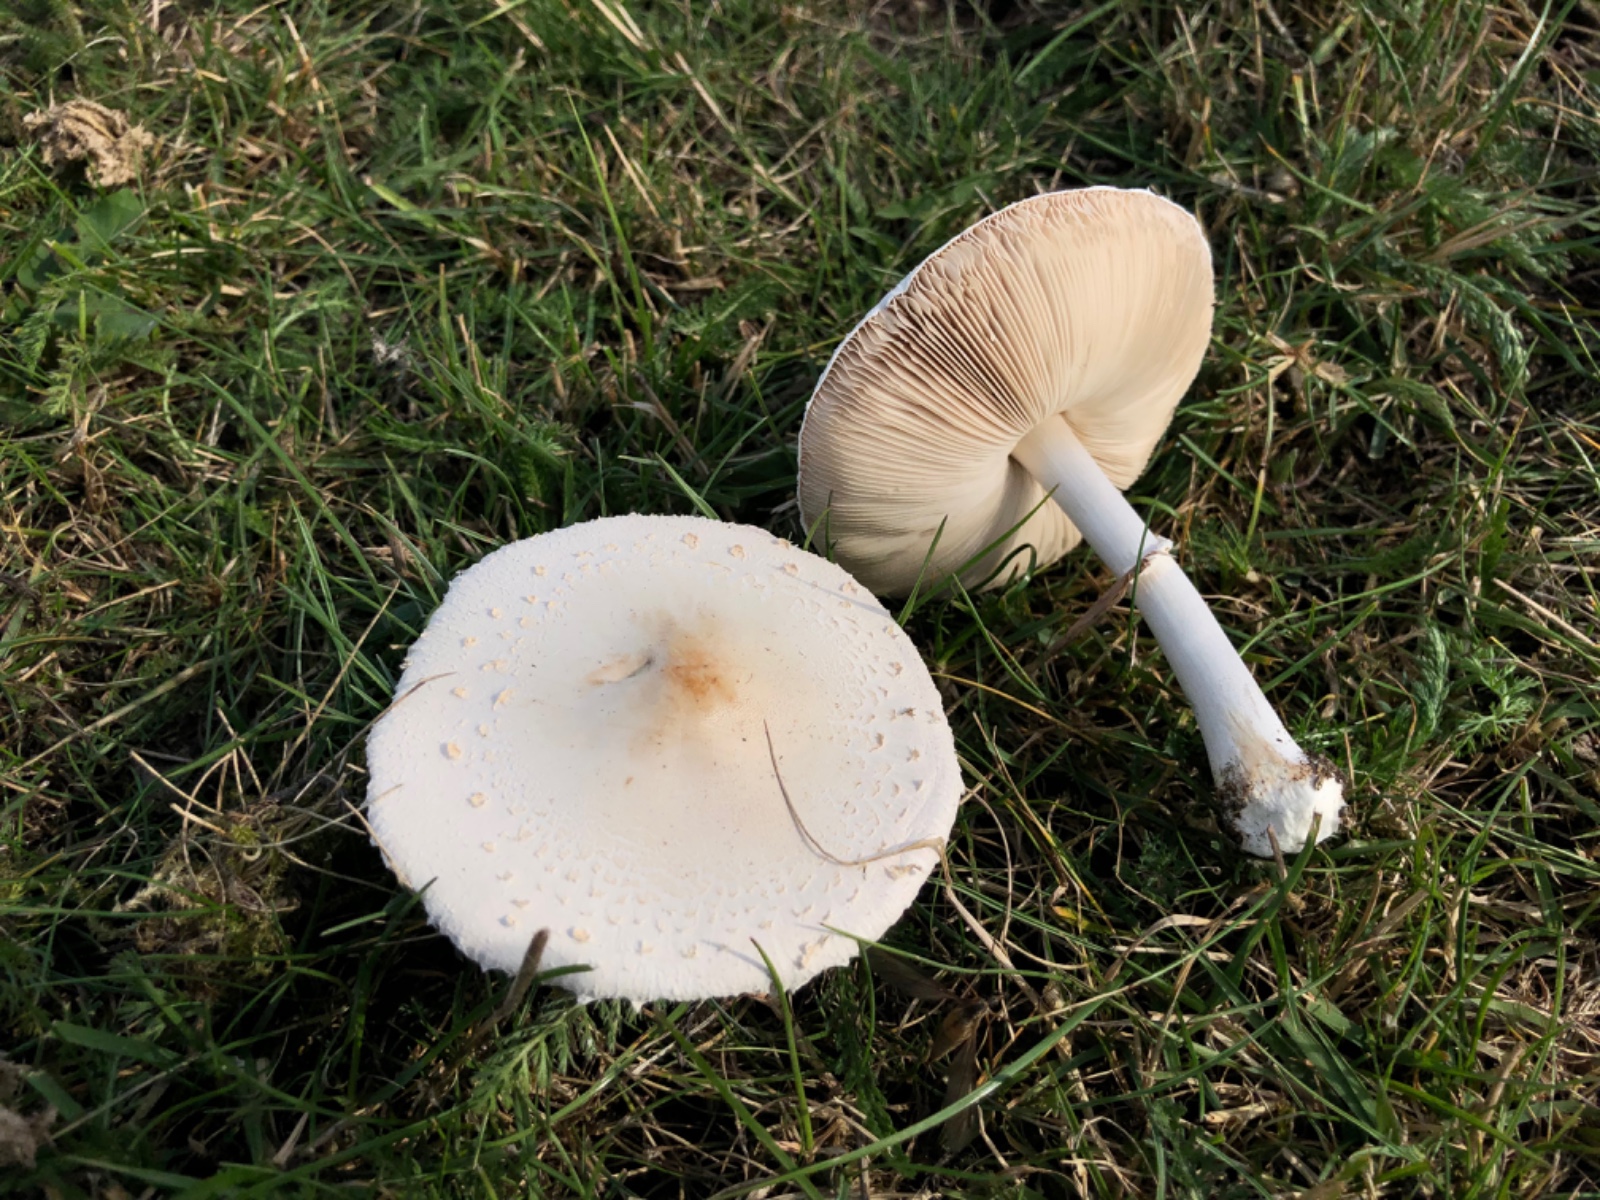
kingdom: Fungi
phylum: Basidiomycota
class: Agaricomycetes
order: Agaricales
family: Agaricaceae
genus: Macrolepiota
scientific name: Macrolepiota excoriata
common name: mark-kæmpeparasolhat
